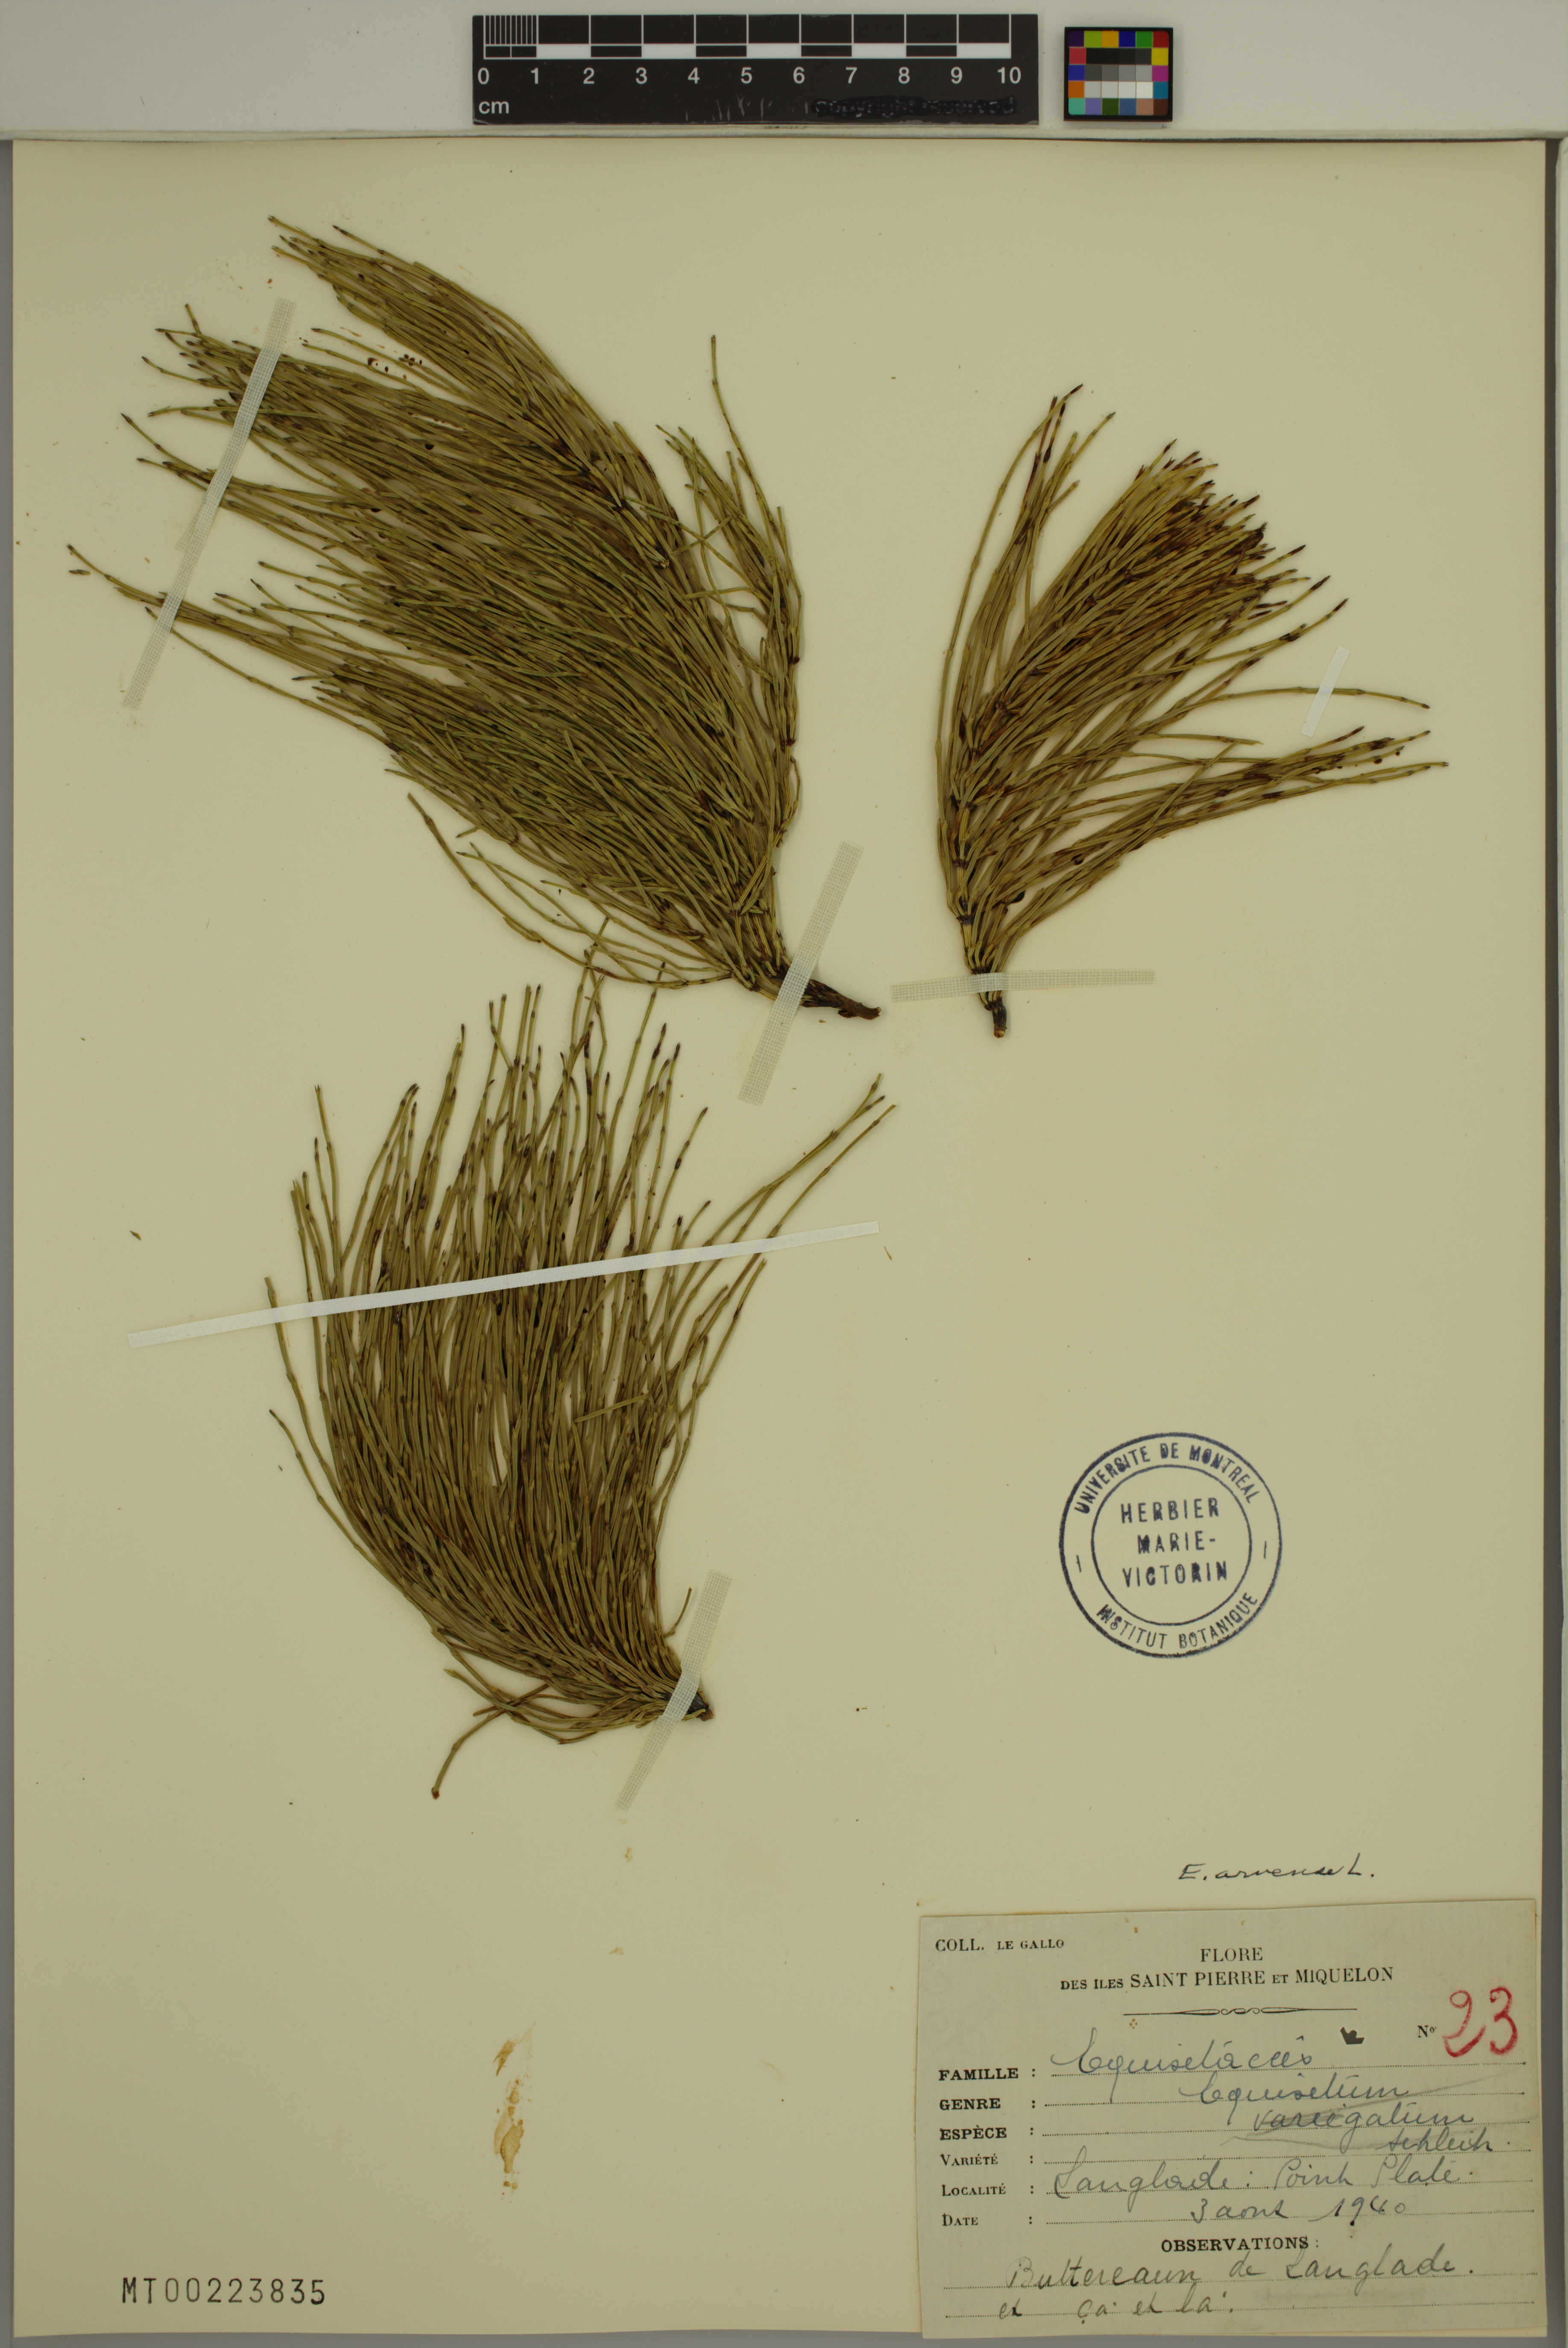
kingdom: Plantae
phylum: Tracheophyta
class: Polypodiopsida
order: Equisetales
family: Equisetaceae
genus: Equisetum
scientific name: Equisetum arvense
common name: Field horsetail
